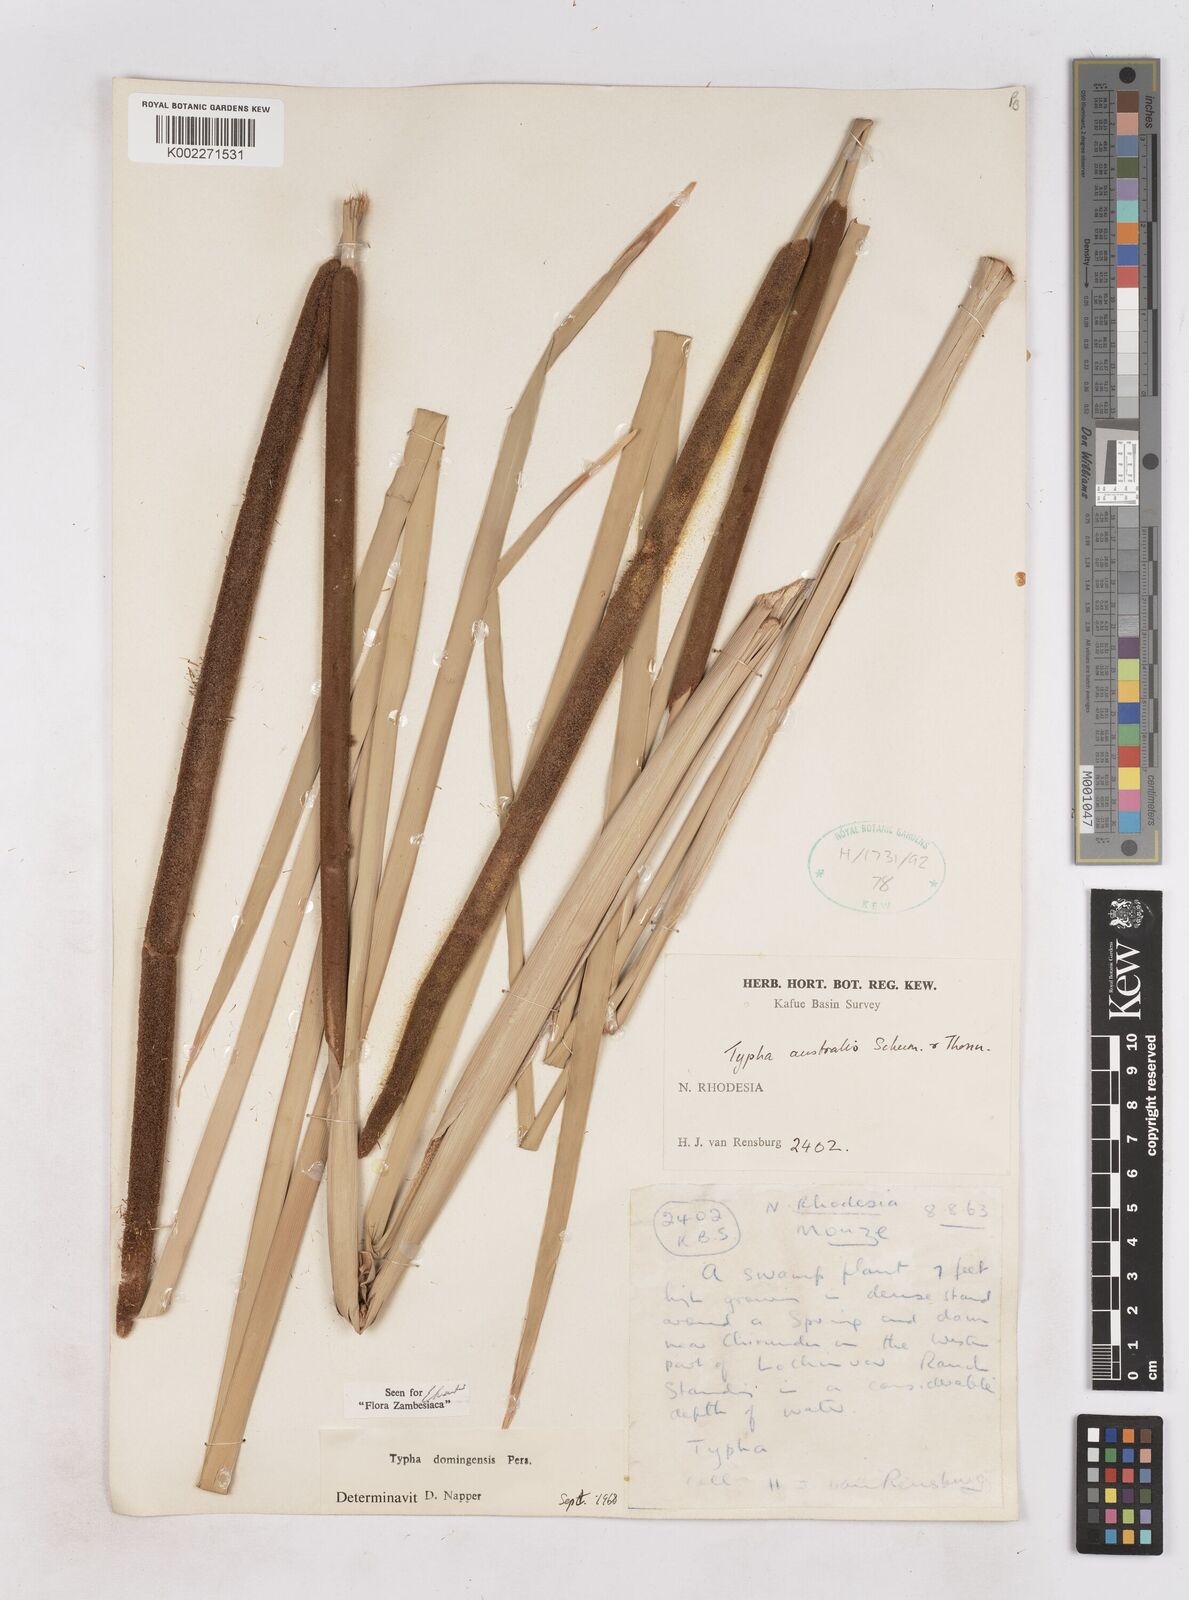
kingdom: Plantae
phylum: Tracheophyta
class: Liliopsida
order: Poales
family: Typhaceae
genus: Typha
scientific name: Typha domingensis
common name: Southern cattail
